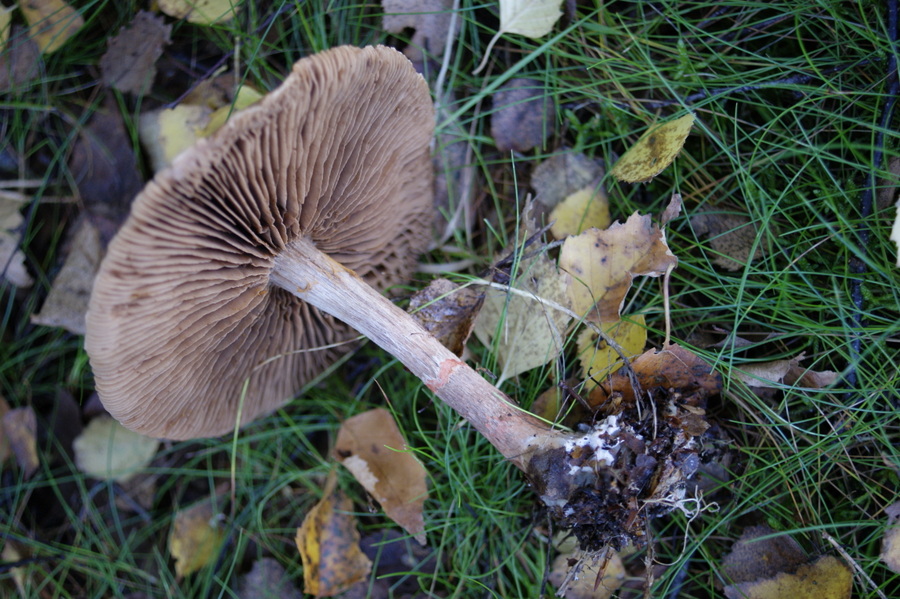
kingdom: Fungi
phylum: Basidiomycota
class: Agaricomycetes
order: Agaricales
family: Cortinariaceae
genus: Cortinarius
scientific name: Cortinarius armillatus
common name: cinnoberbæltet slørhat
